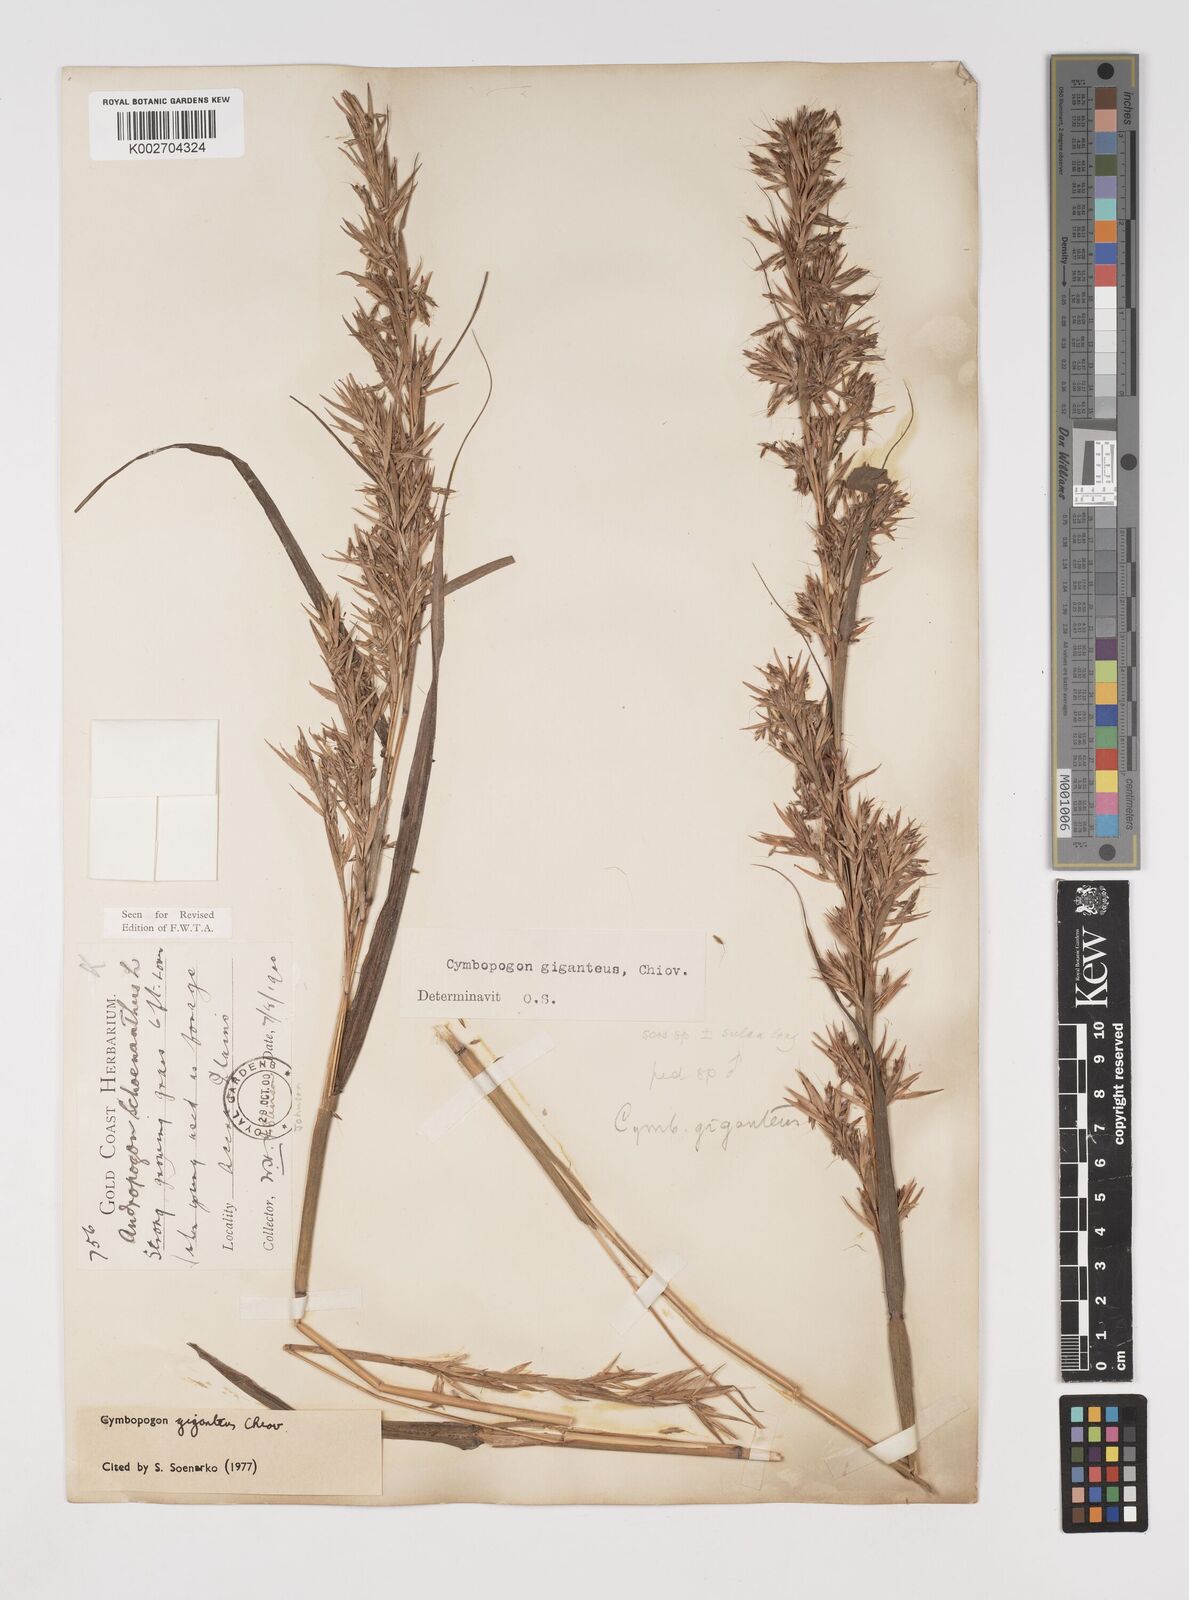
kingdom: Plantae
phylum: Tracheophyta
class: Liliopsida
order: Poales
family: Poaceae
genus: Cymbopogon
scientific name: Cymbopogon giganteus
